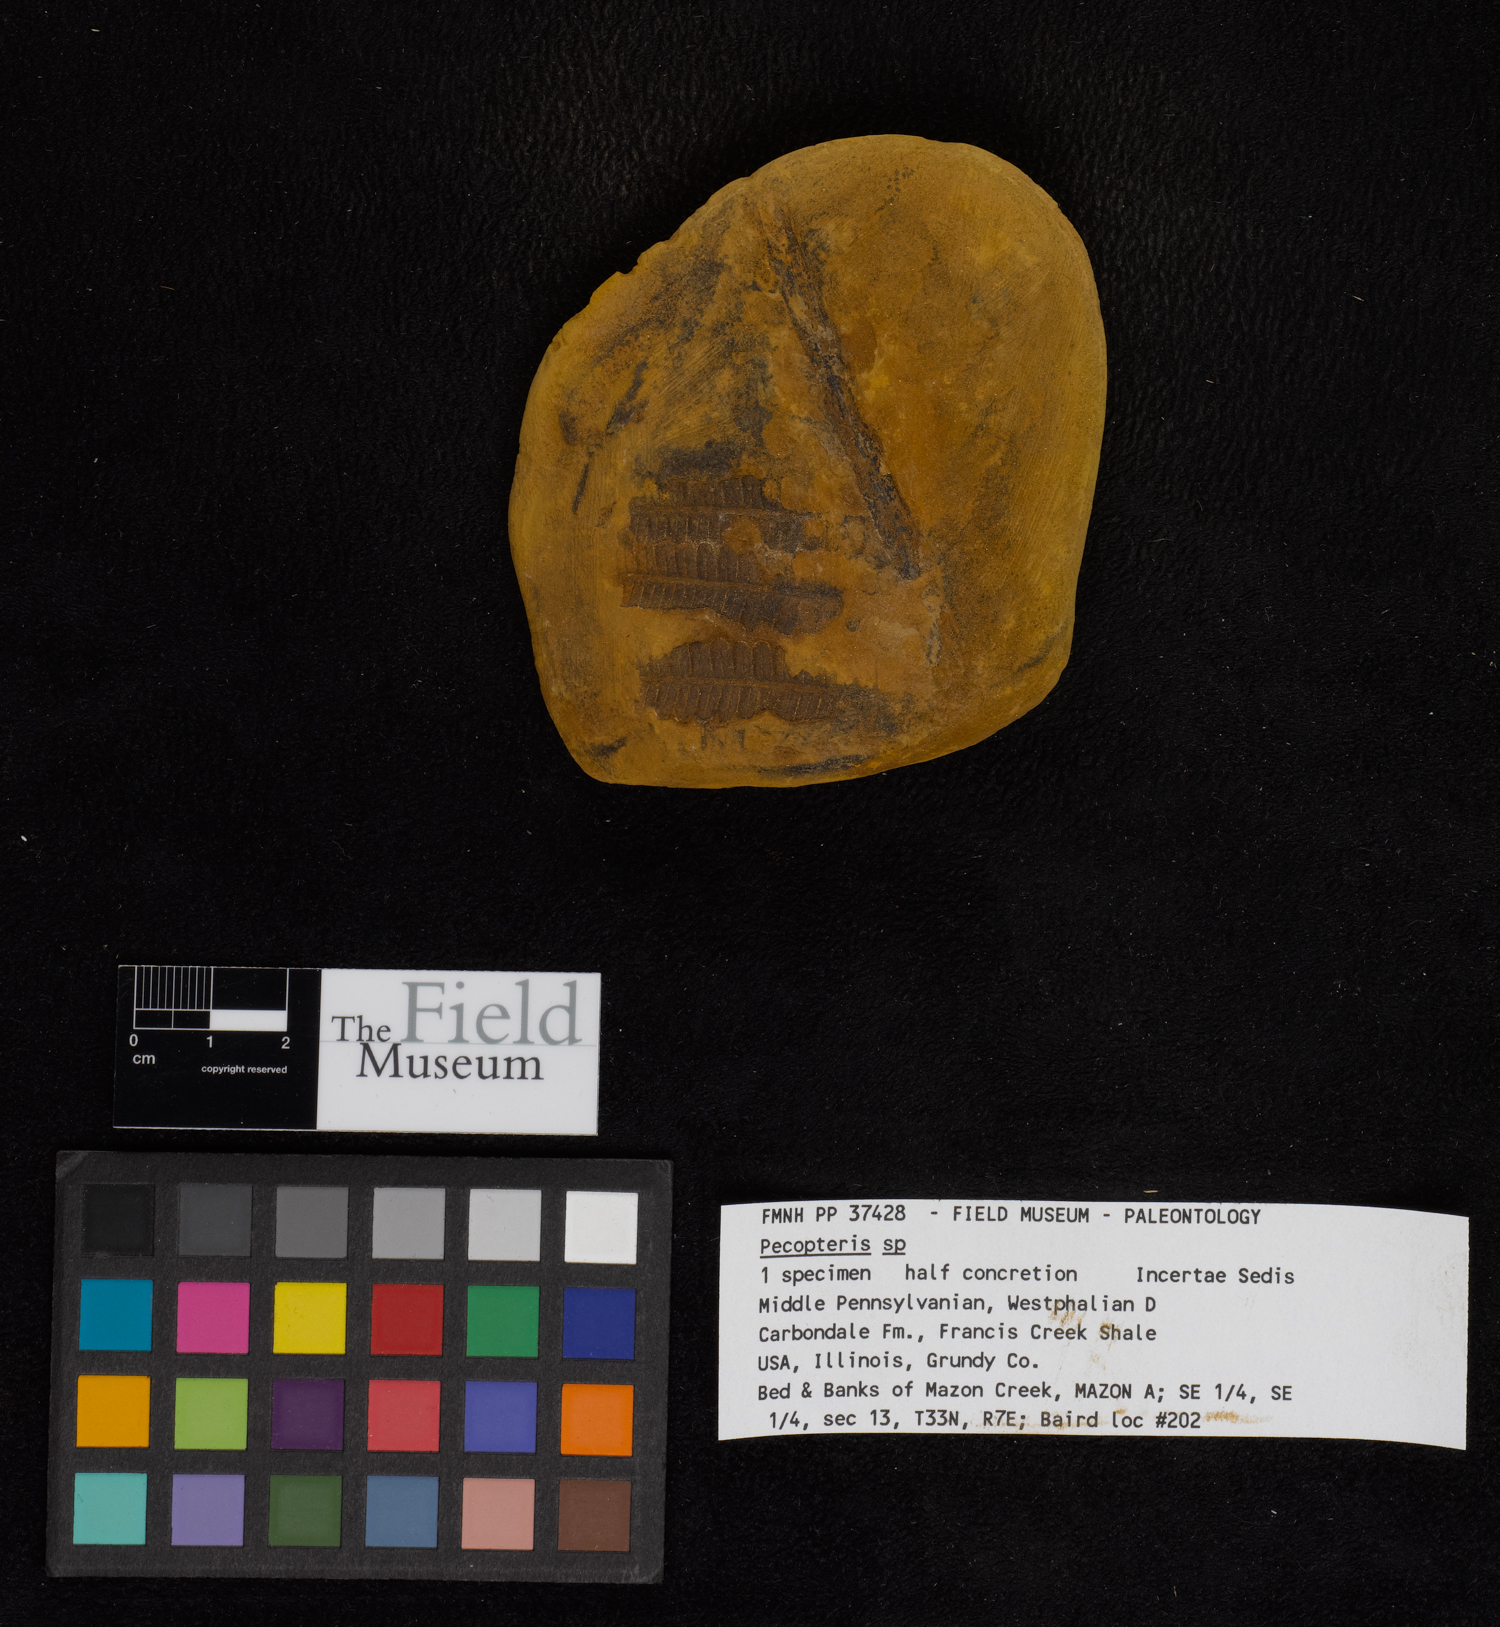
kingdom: Plantae
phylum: Tracheophyta
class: Polypodiopsida
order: Marattiales
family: Asterothecaceae
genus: Pecopteris
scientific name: Pecopteris
